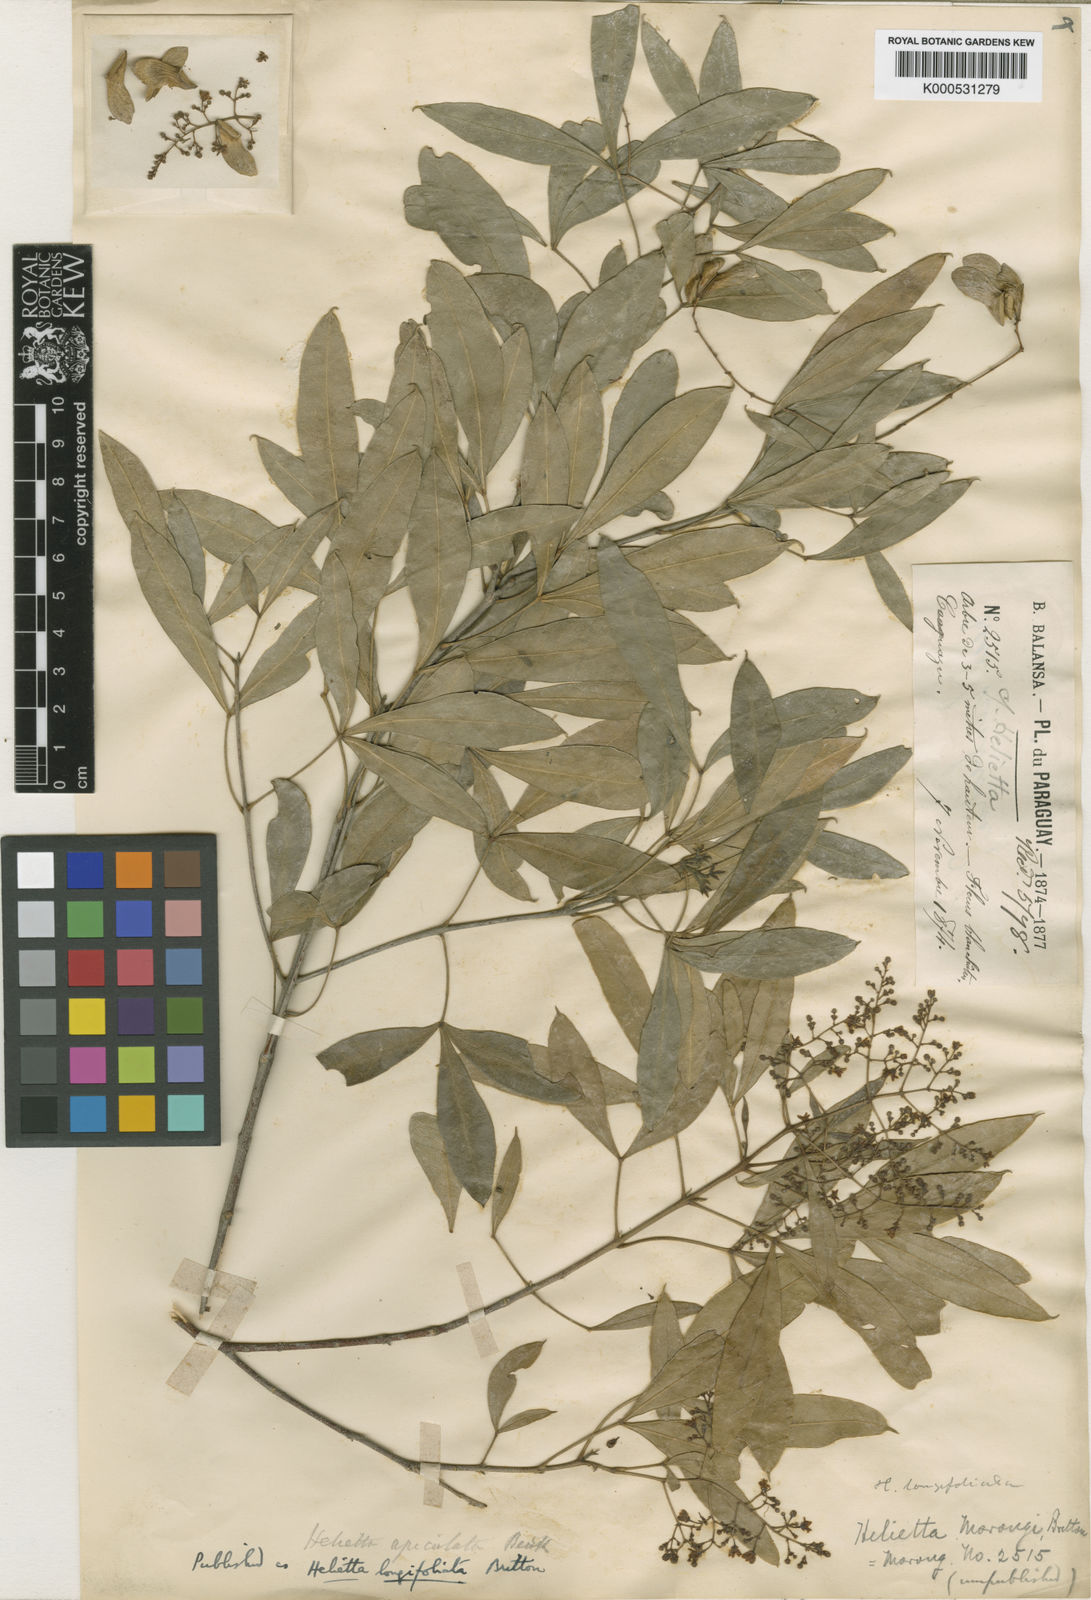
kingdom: Plantae
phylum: Tracheophyta
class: Magnoliopsida
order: Sapindales
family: Rutaceae
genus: Helietta
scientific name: Helietta
